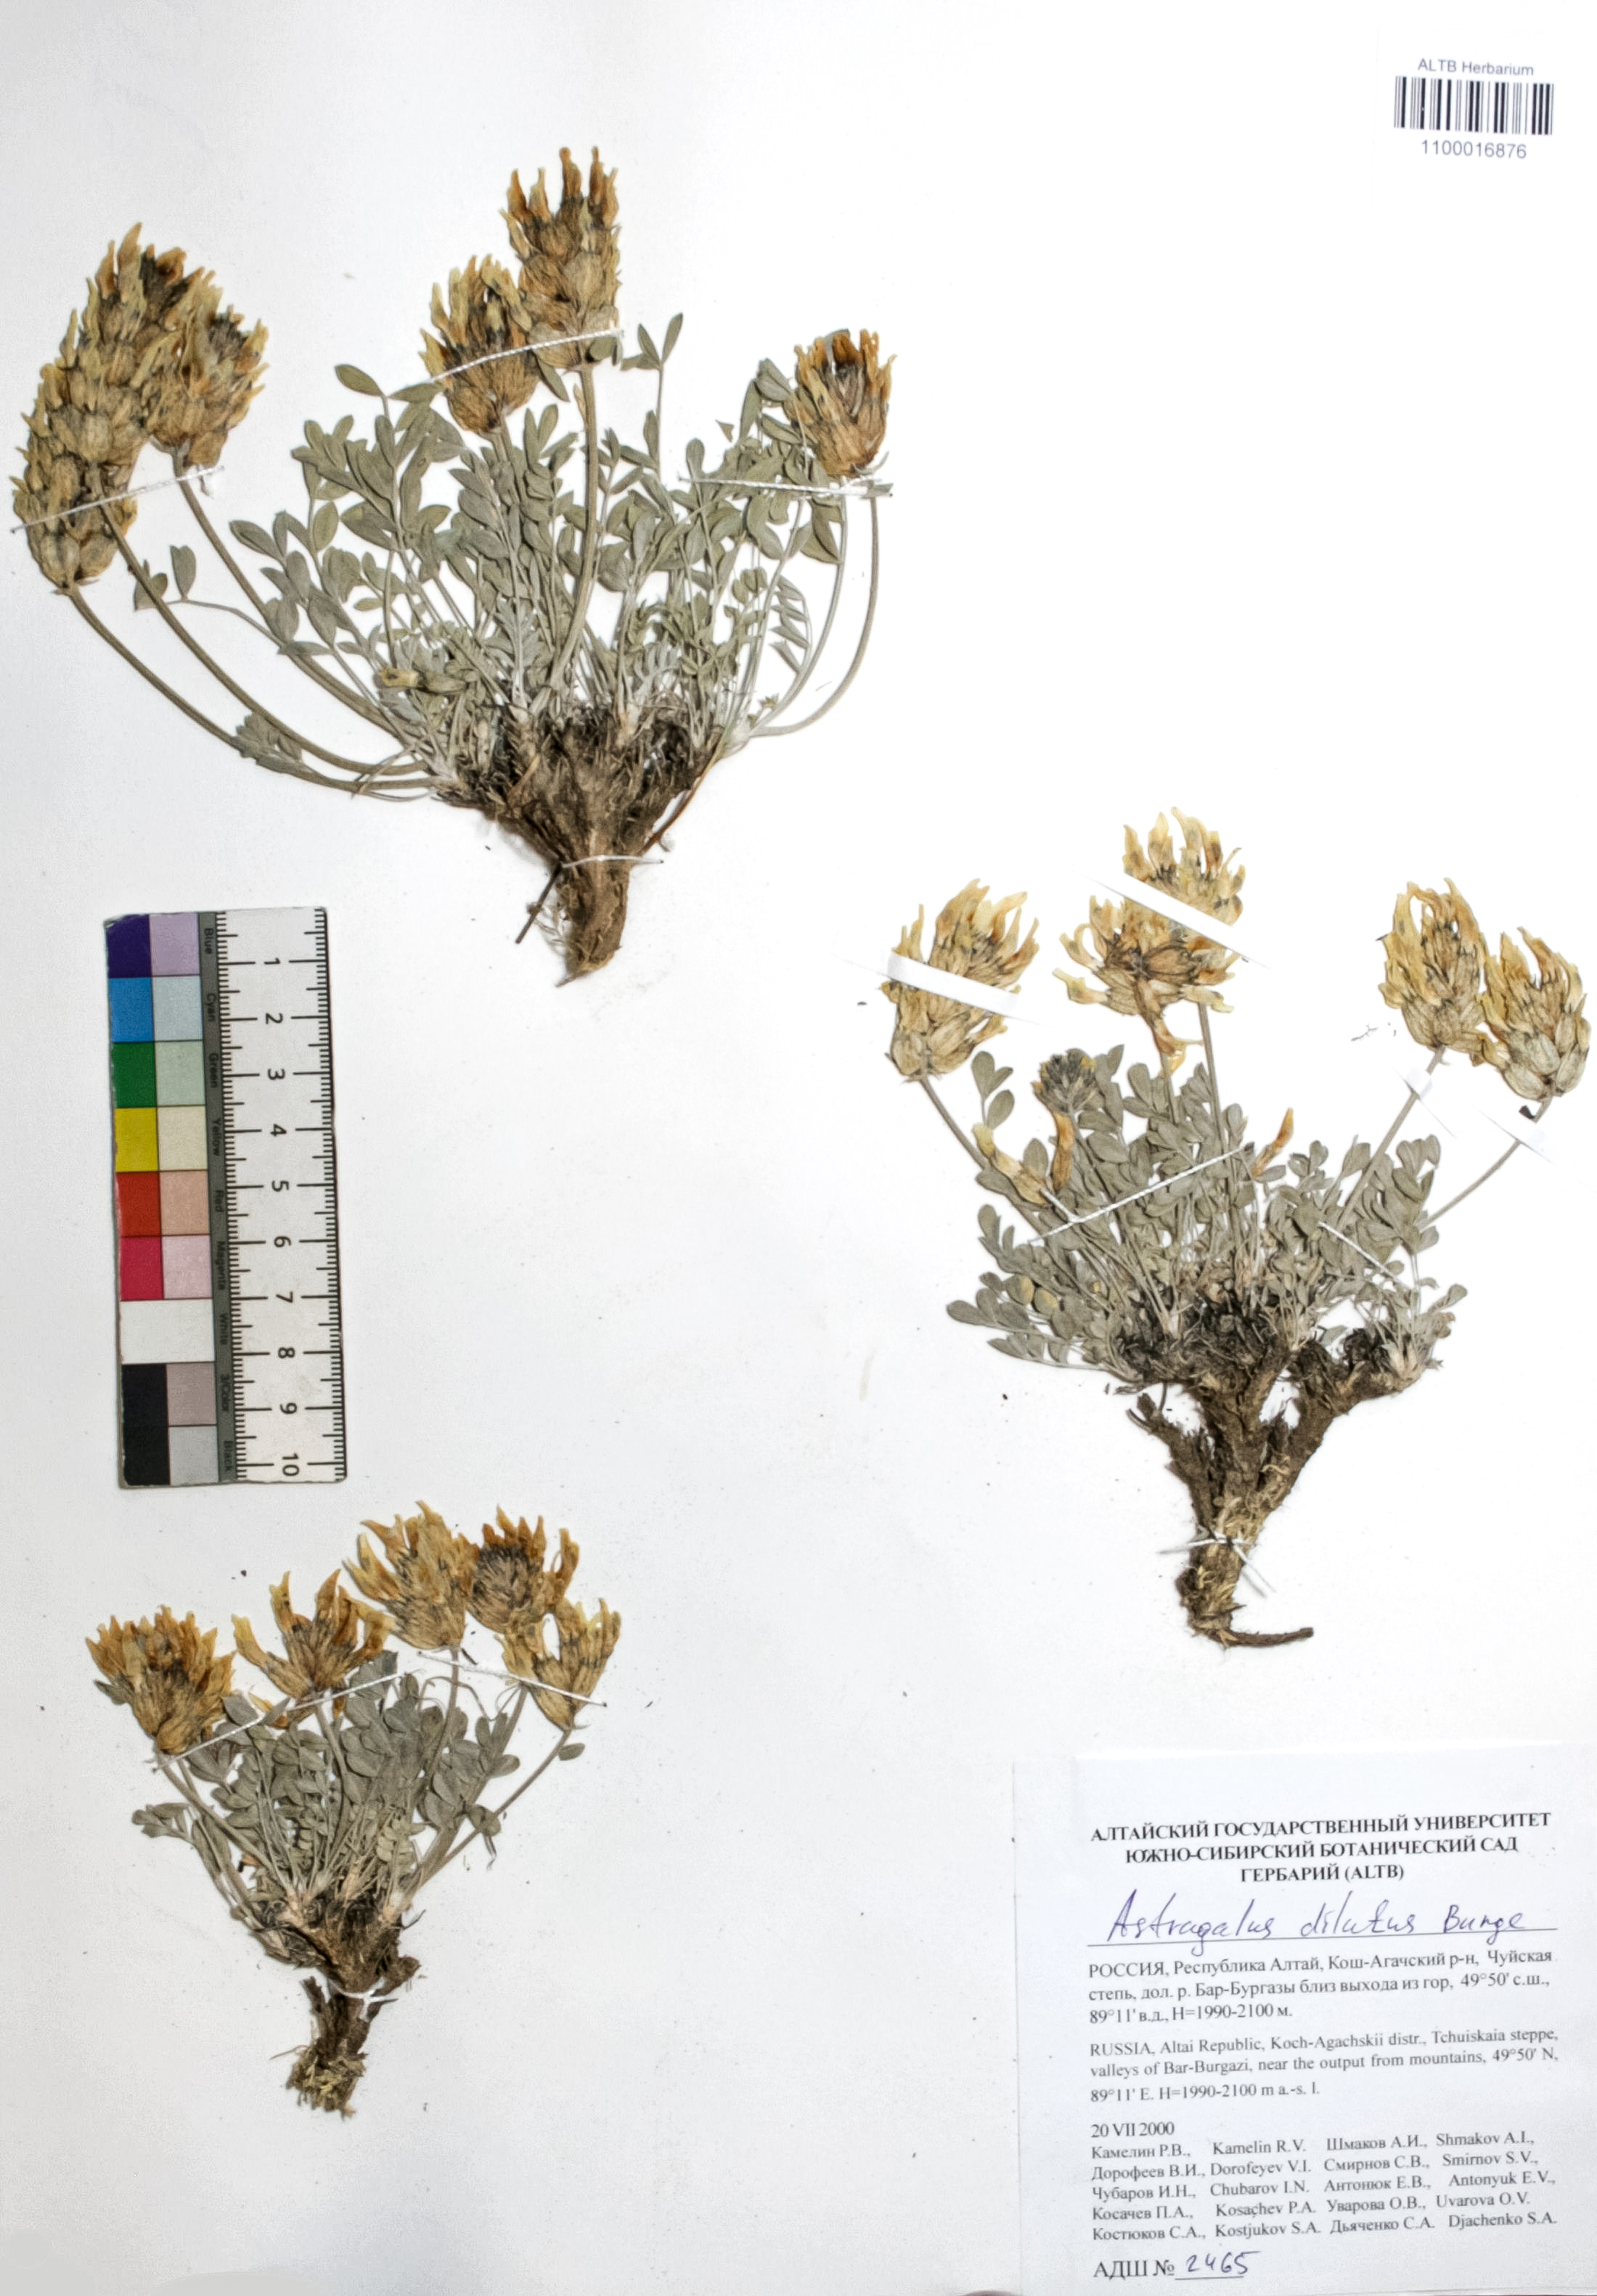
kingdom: Plantae
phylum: Tracheophyta
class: Magnoliopsida
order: Fabales
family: Fabaceae
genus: Astragalus
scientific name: Astragalus dilutus
